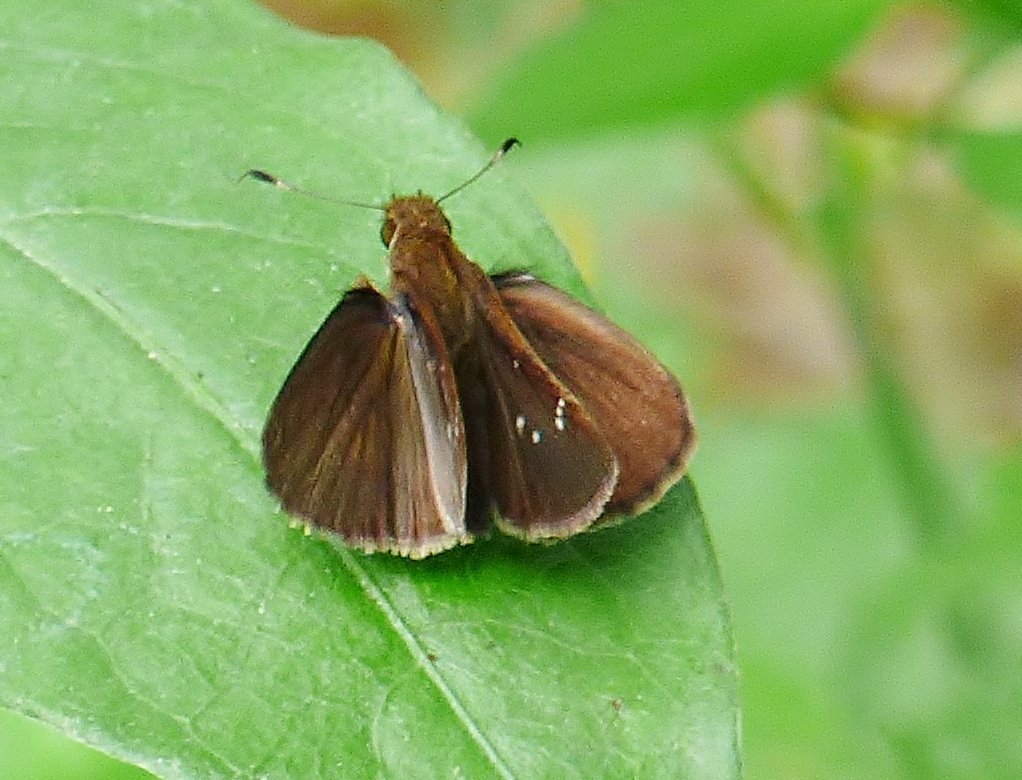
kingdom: Animalia
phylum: Arthropoda
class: Insecta
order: Lepidoptera
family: Hesperiidae
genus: Lerema
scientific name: Lerema accius
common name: Clouded Skipper
